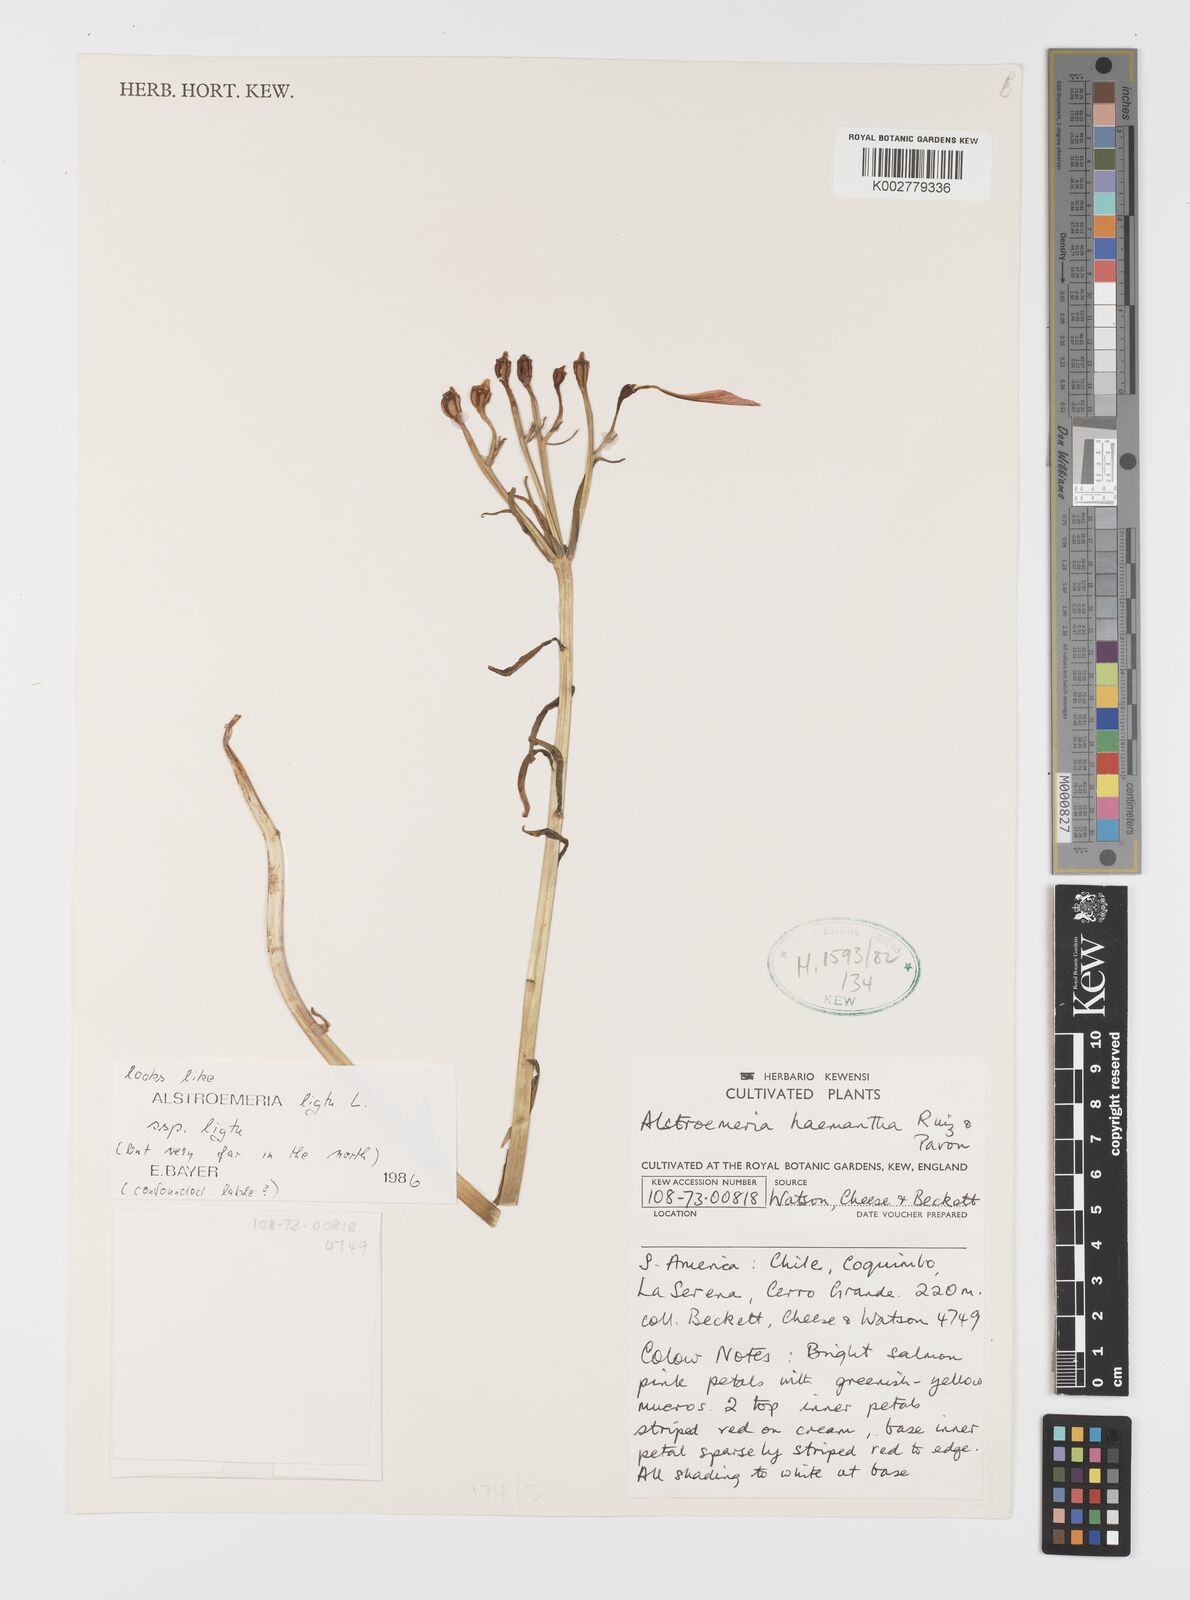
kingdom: Plantae
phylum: Tracheophyta
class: Liliopsida
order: Liliales
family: Alstroemeriaceae
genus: Alstroemeria
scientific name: Alstroemeria ligtu
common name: St. martin's-flower
